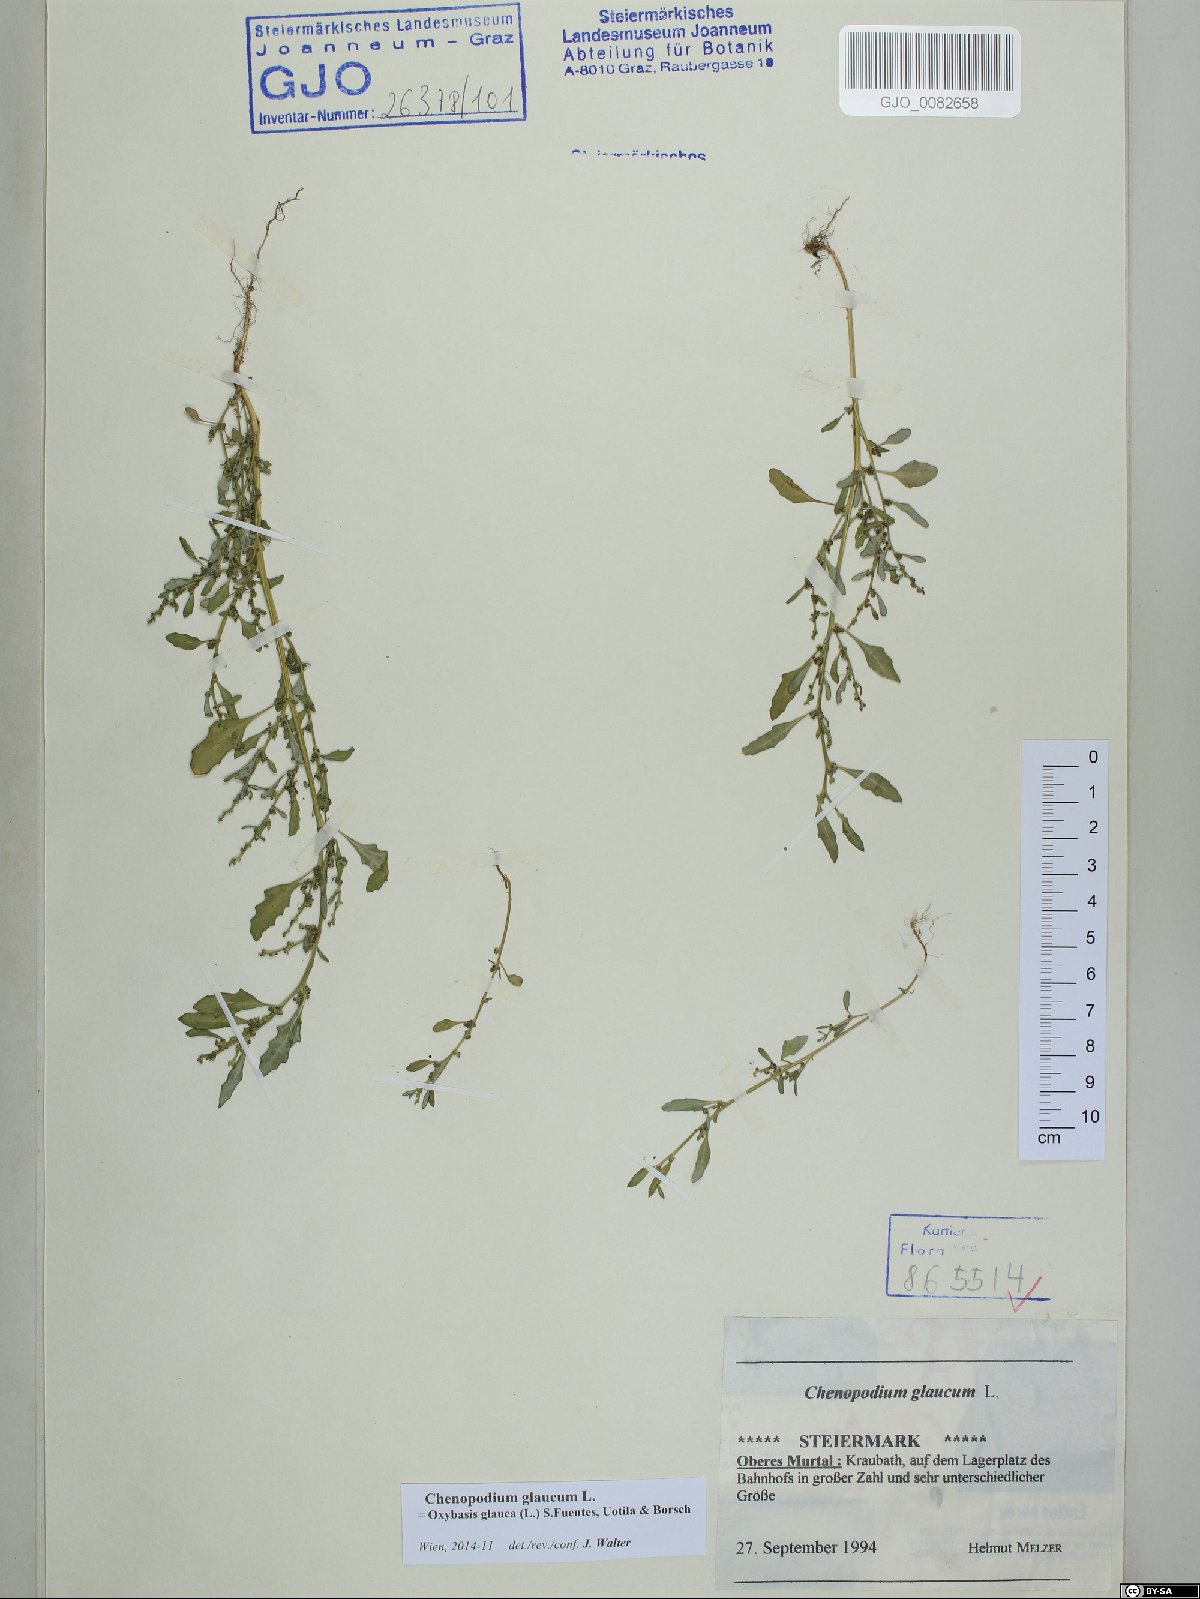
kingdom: Plantae
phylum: Tracheophyta
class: Magnoliopsida
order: Caryophyllales
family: Amaranthaceae
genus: Oxybasis
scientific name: Oxybasis glauca
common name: Glaucous goosefoot
